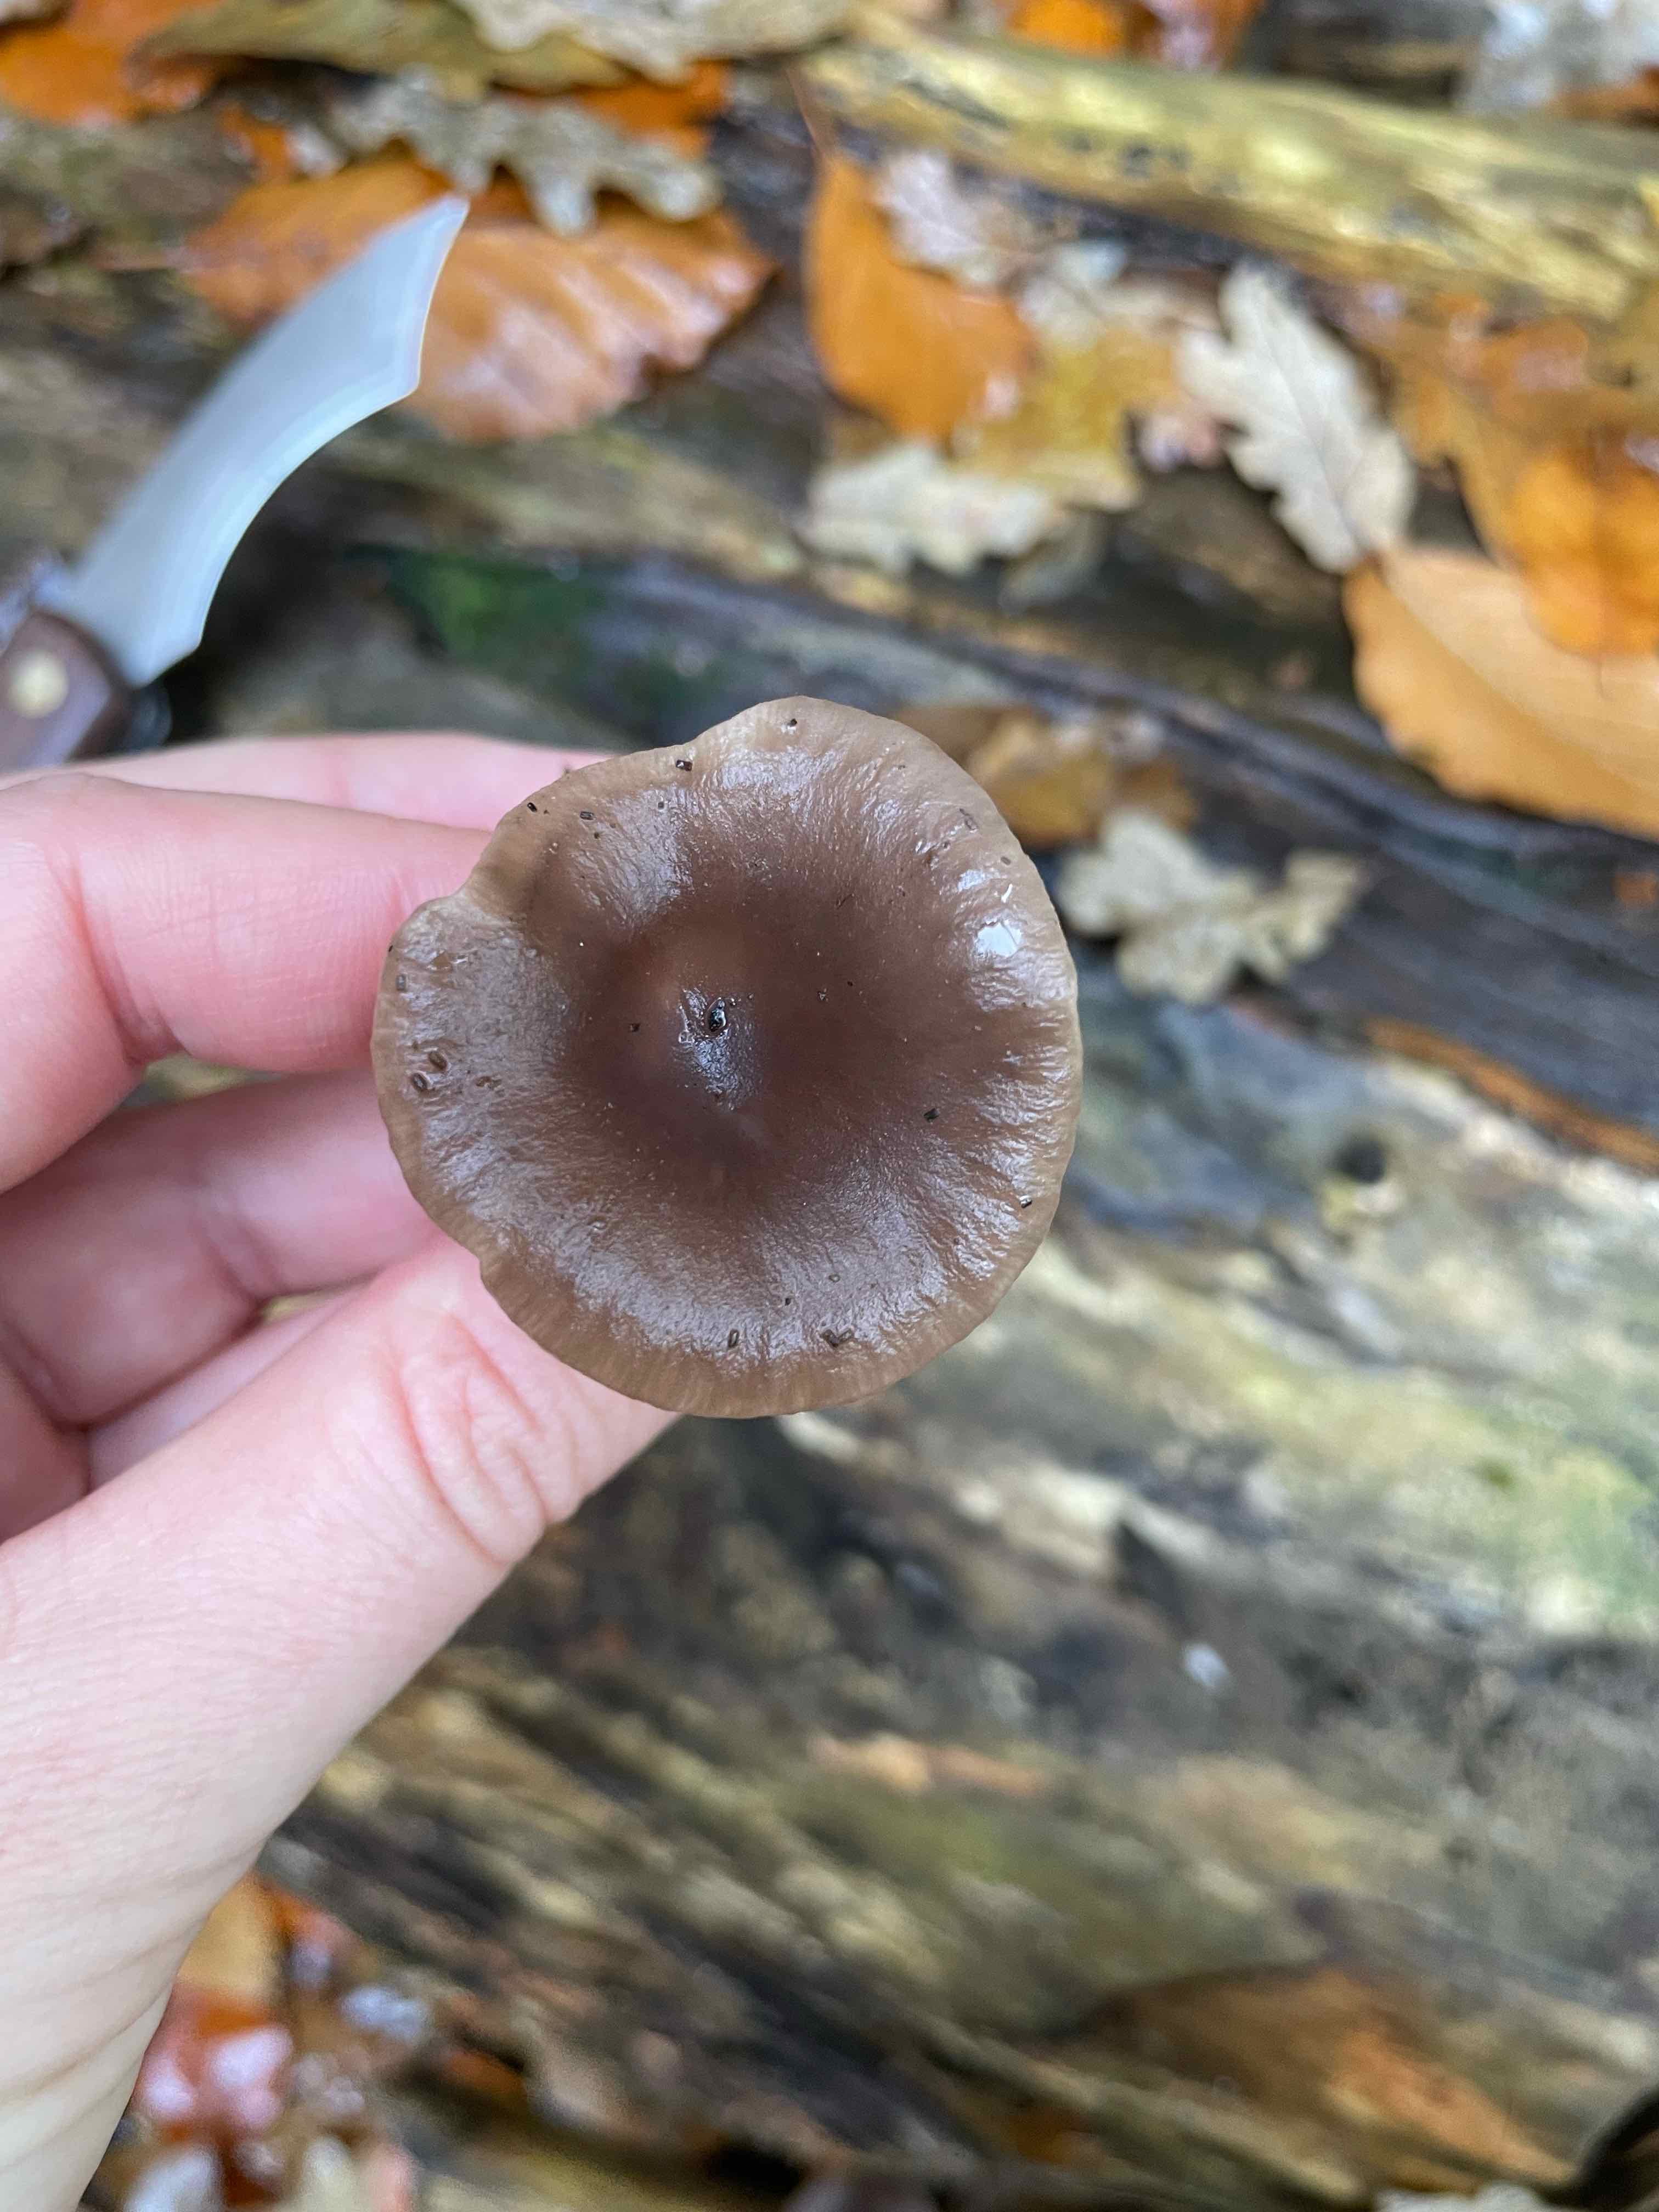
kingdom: Fungi
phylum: Basidiomycota
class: Agaricomycetes
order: Agaricales
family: Pseudoclitocybaceae
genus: Pseudoclitocybe
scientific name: Pseudoclitocybe cyathiformis
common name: almindelig bægertragthat
